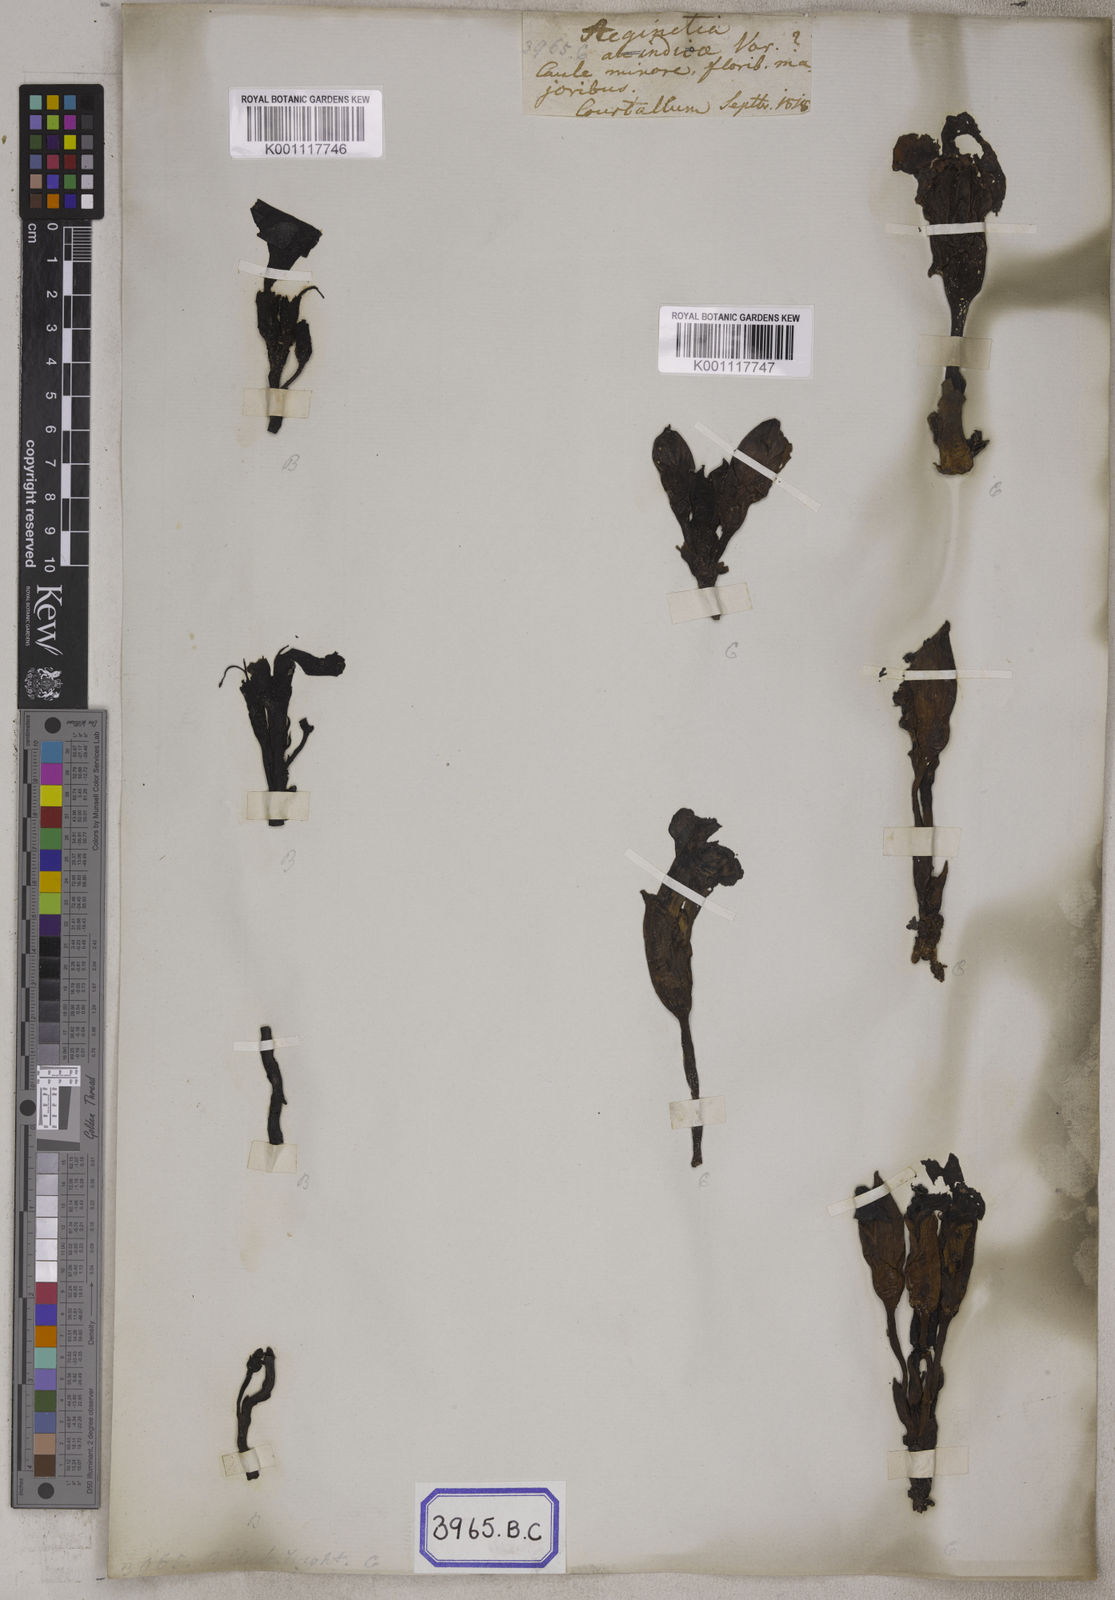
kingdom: Plantae
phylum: Tracheophyta
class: Magnoliopsida
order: Lamiales
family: Orobanchaceae
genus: Aeginetia
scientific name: Aeginetia indica
